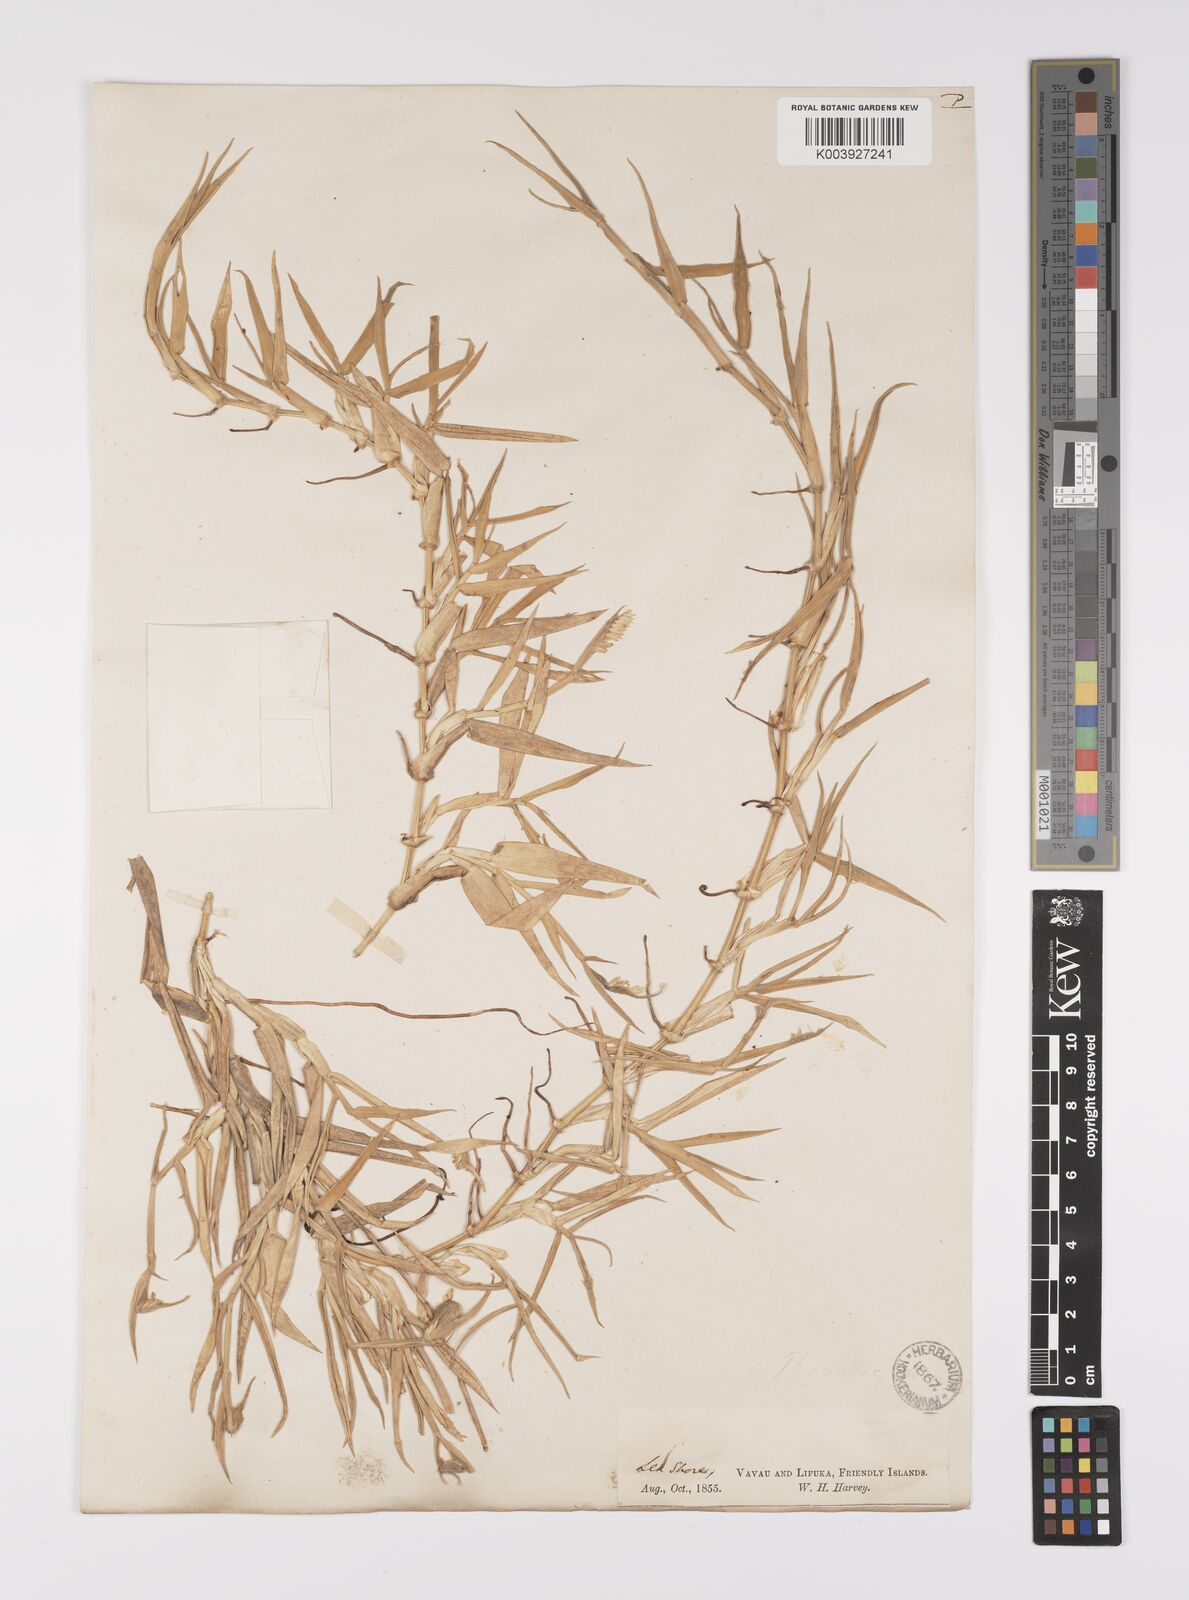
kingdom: Plantae
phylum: Tracheophyta
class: Liliopsida
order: Poales
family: Poaceae
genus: Thuarea
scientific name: Thuarea involuta
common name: Tropical beach grass
